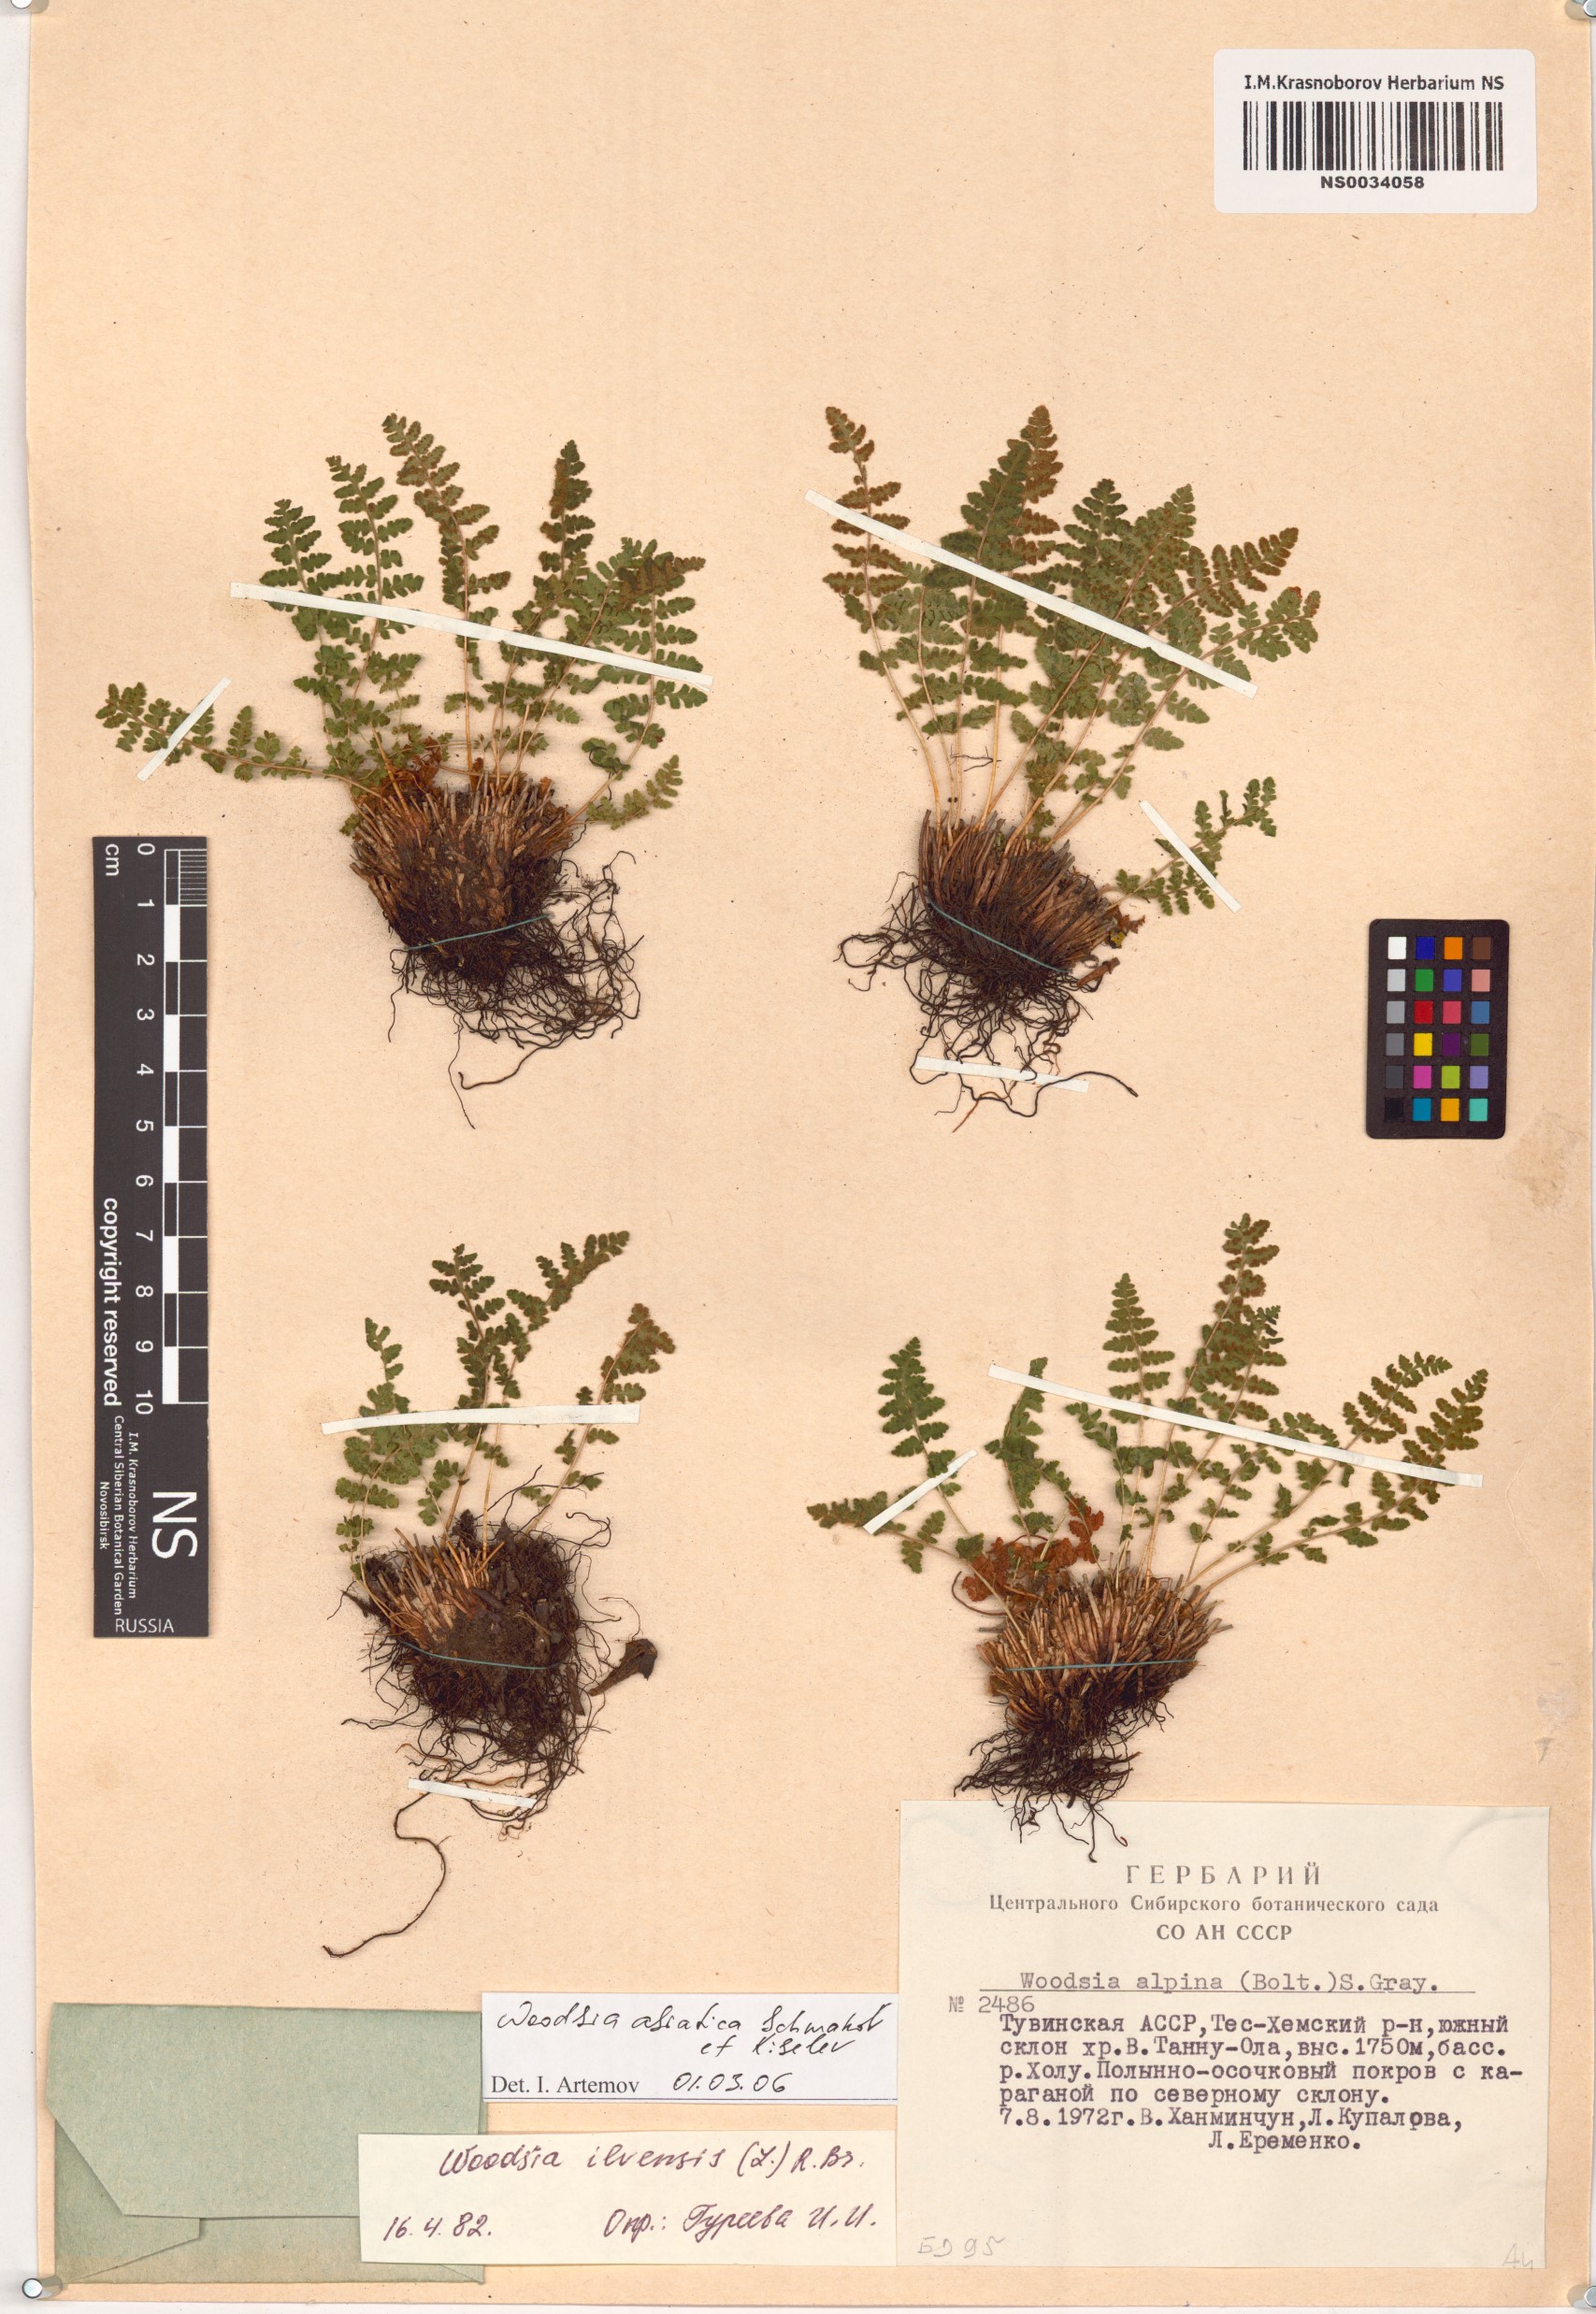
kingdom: Plantae
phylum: Tracheophyta
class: Polypodiopsida
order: Polypodiales
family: Woodsiaceae
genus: Woodsia
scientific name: Woodsia asiatica
